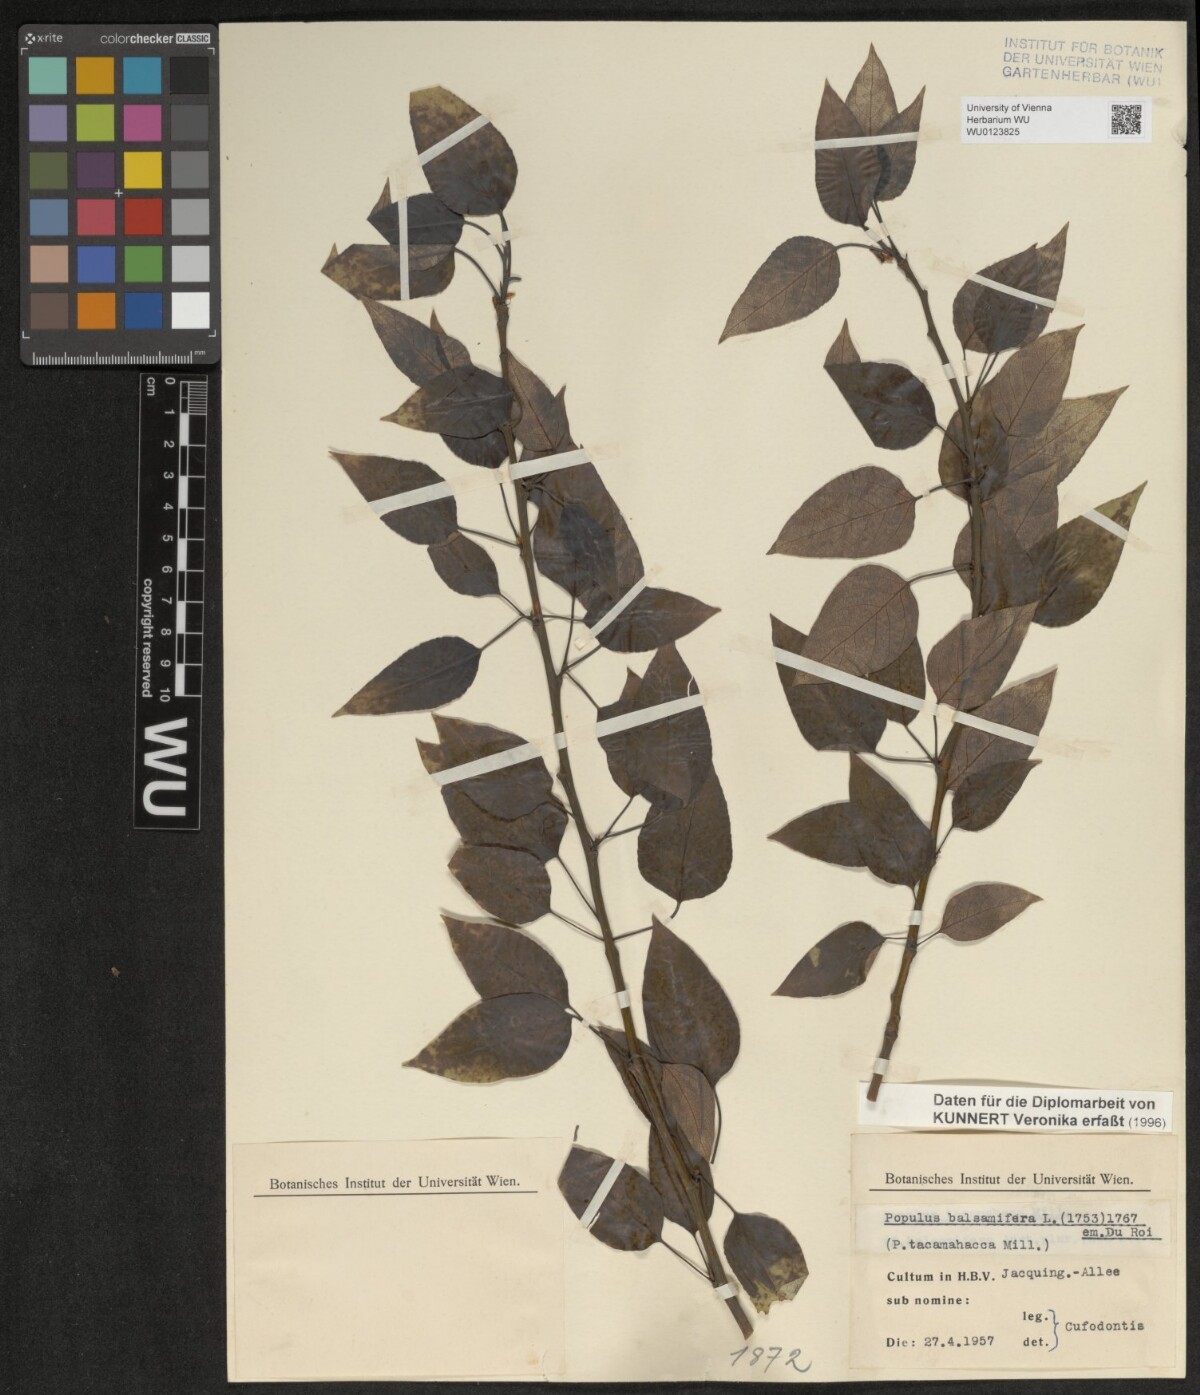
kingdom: Plantae
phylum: Tracheophyta
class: Magnoliopsida
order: Malpighiales
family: Salicaceae
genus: Populus
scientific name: Populus balsamifera
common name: Balsam poplar
